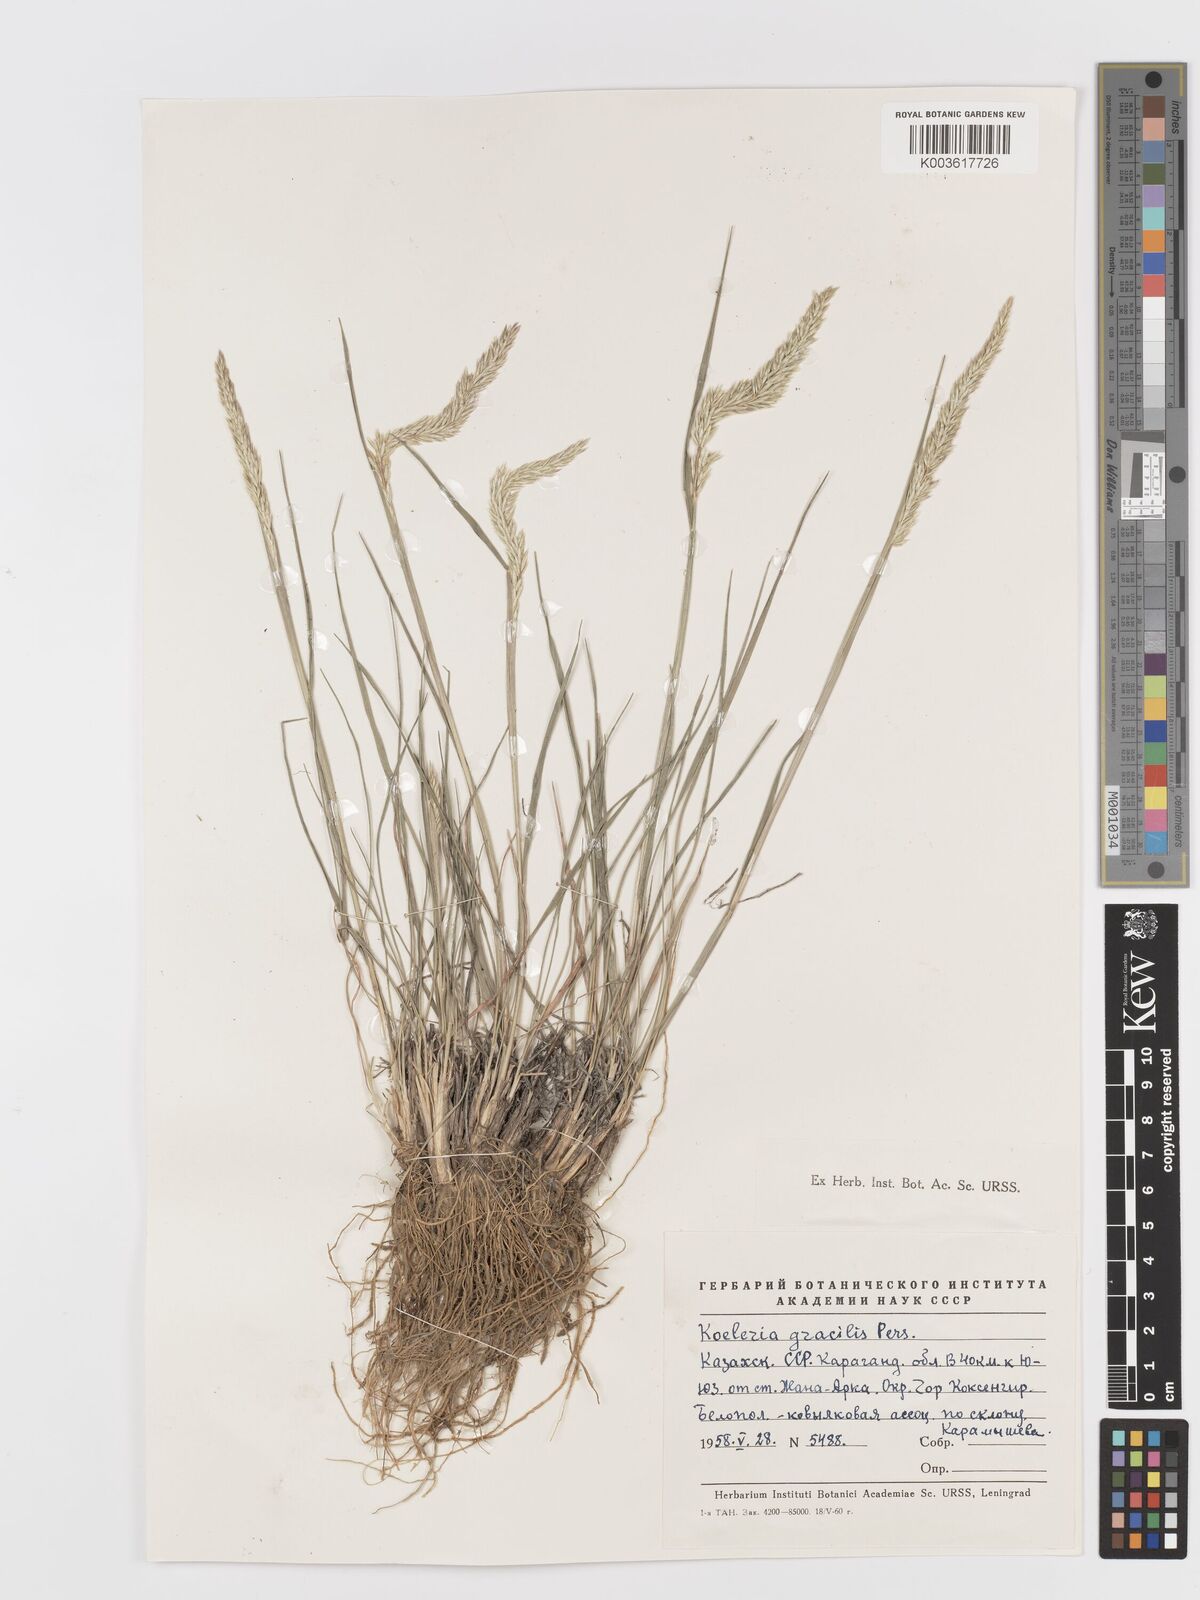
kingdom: Plantae
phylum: Tracheophyta
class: Liliopsida
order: Poales
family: Poaceae
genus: Koeleria
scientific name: Koeleria splendens
